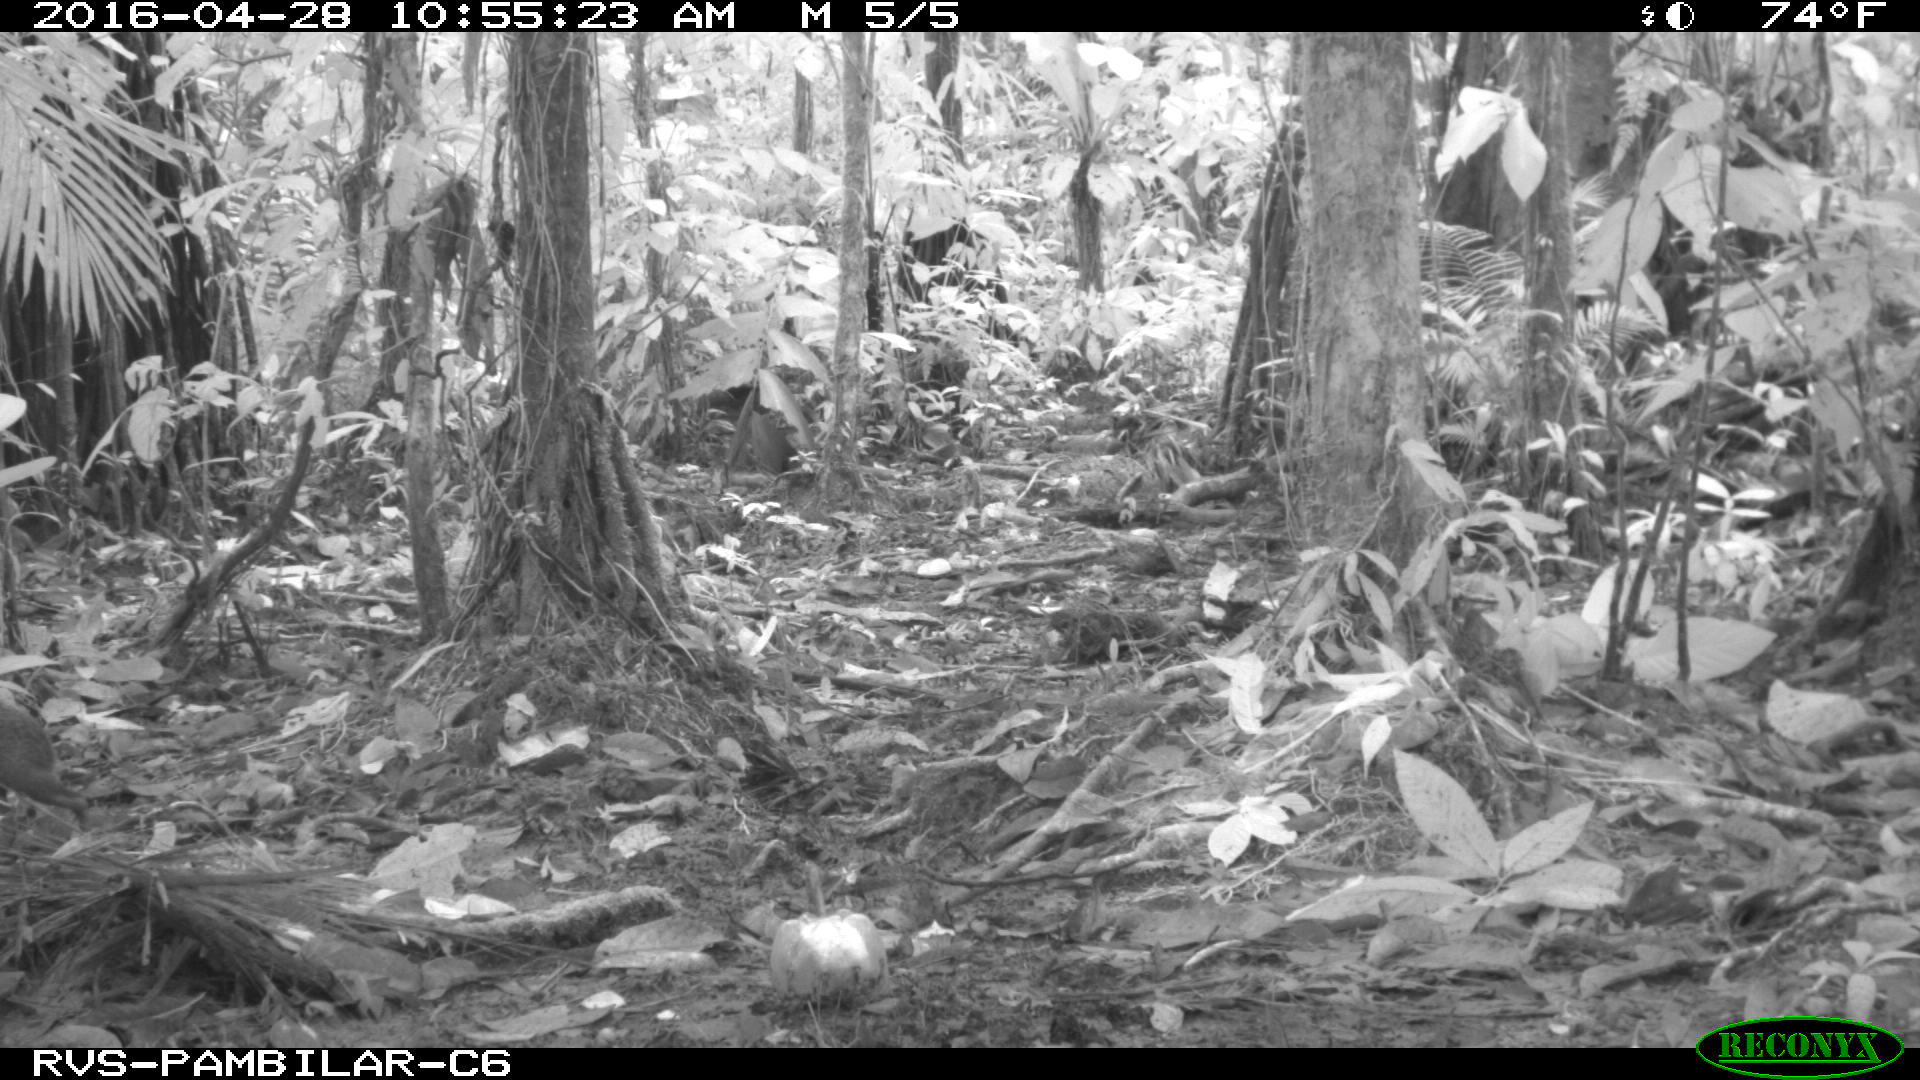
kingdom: Animalia
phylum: Chordata
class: Mammalia
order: Rodentia
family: Dasyproctidae
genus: Dasyprocta
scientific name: Dasyprocta punctata
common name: Central american agouti
